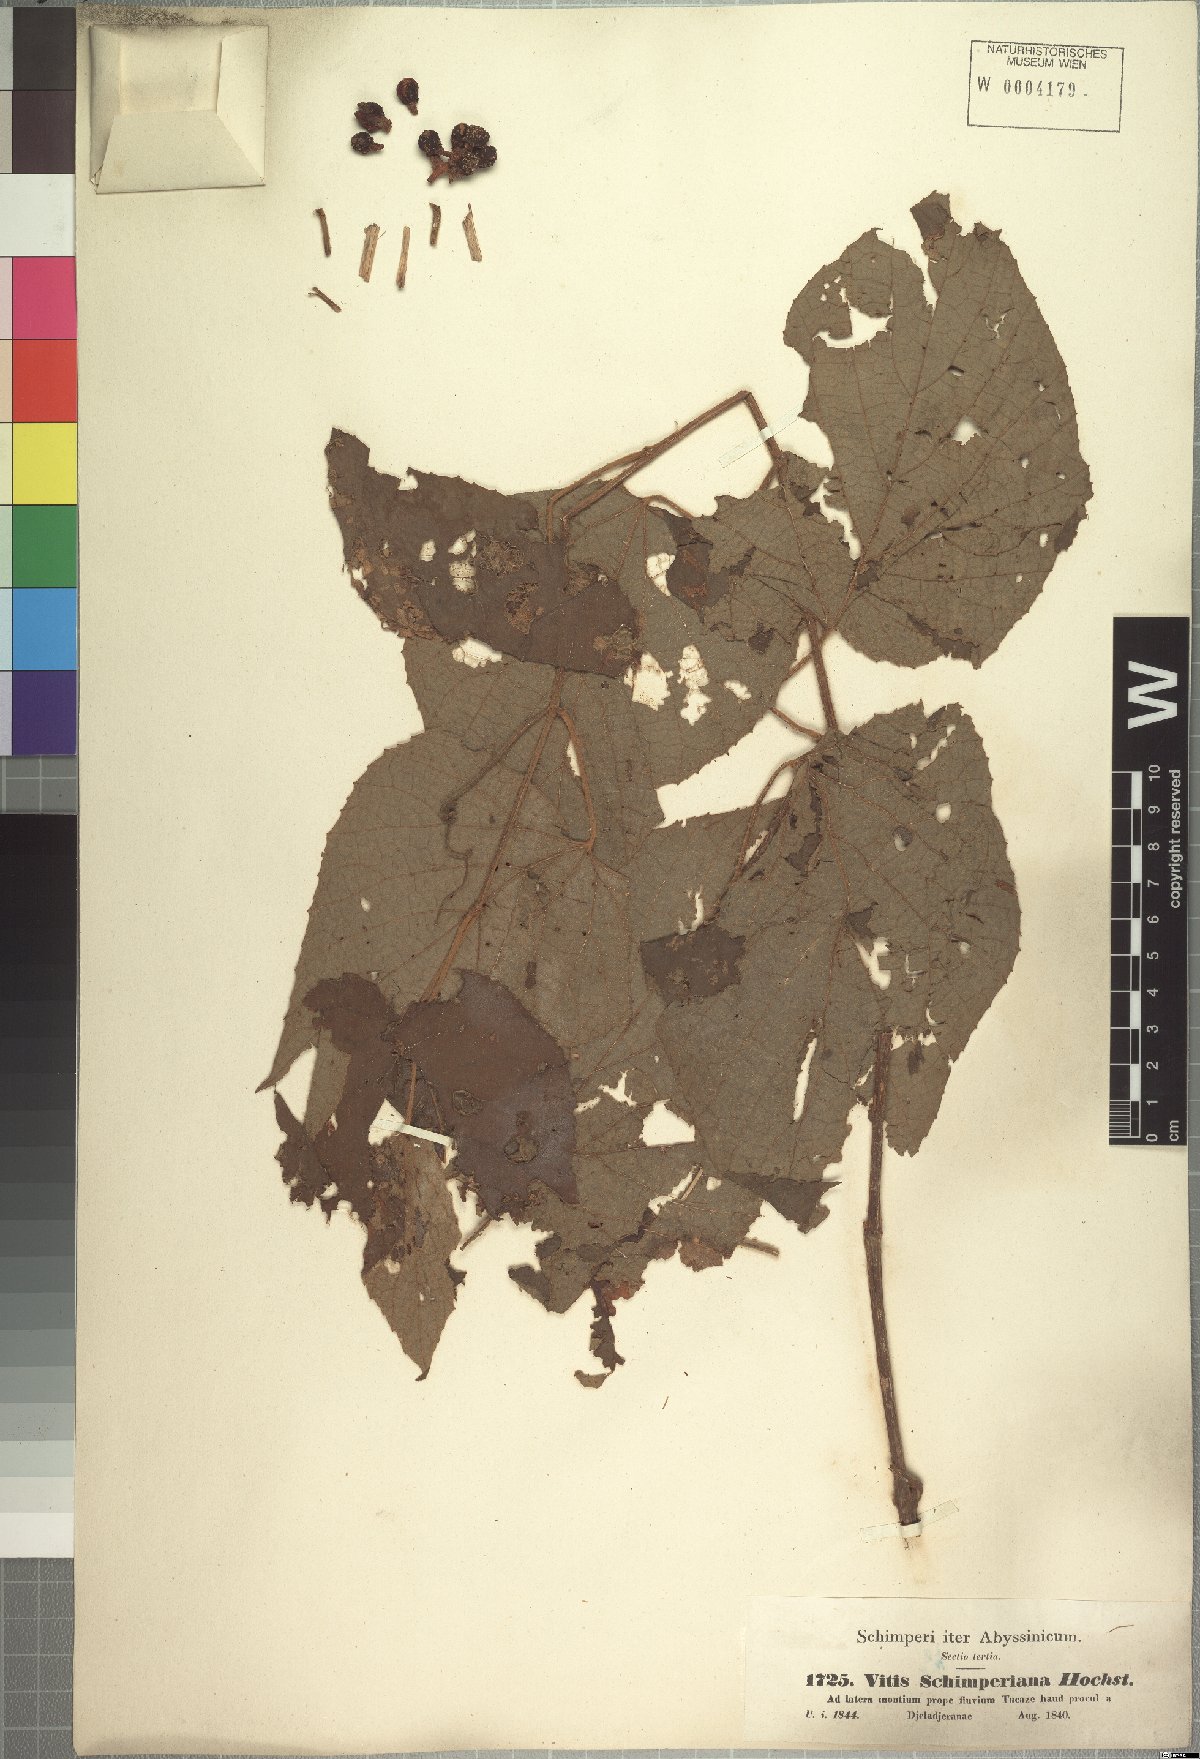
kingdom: Plantae
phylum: Tracheophyta
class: Magnoliopsida
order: Vitales
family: Vitaceae
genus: Ampelocissus
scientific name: Ampelocissus schimperiana
